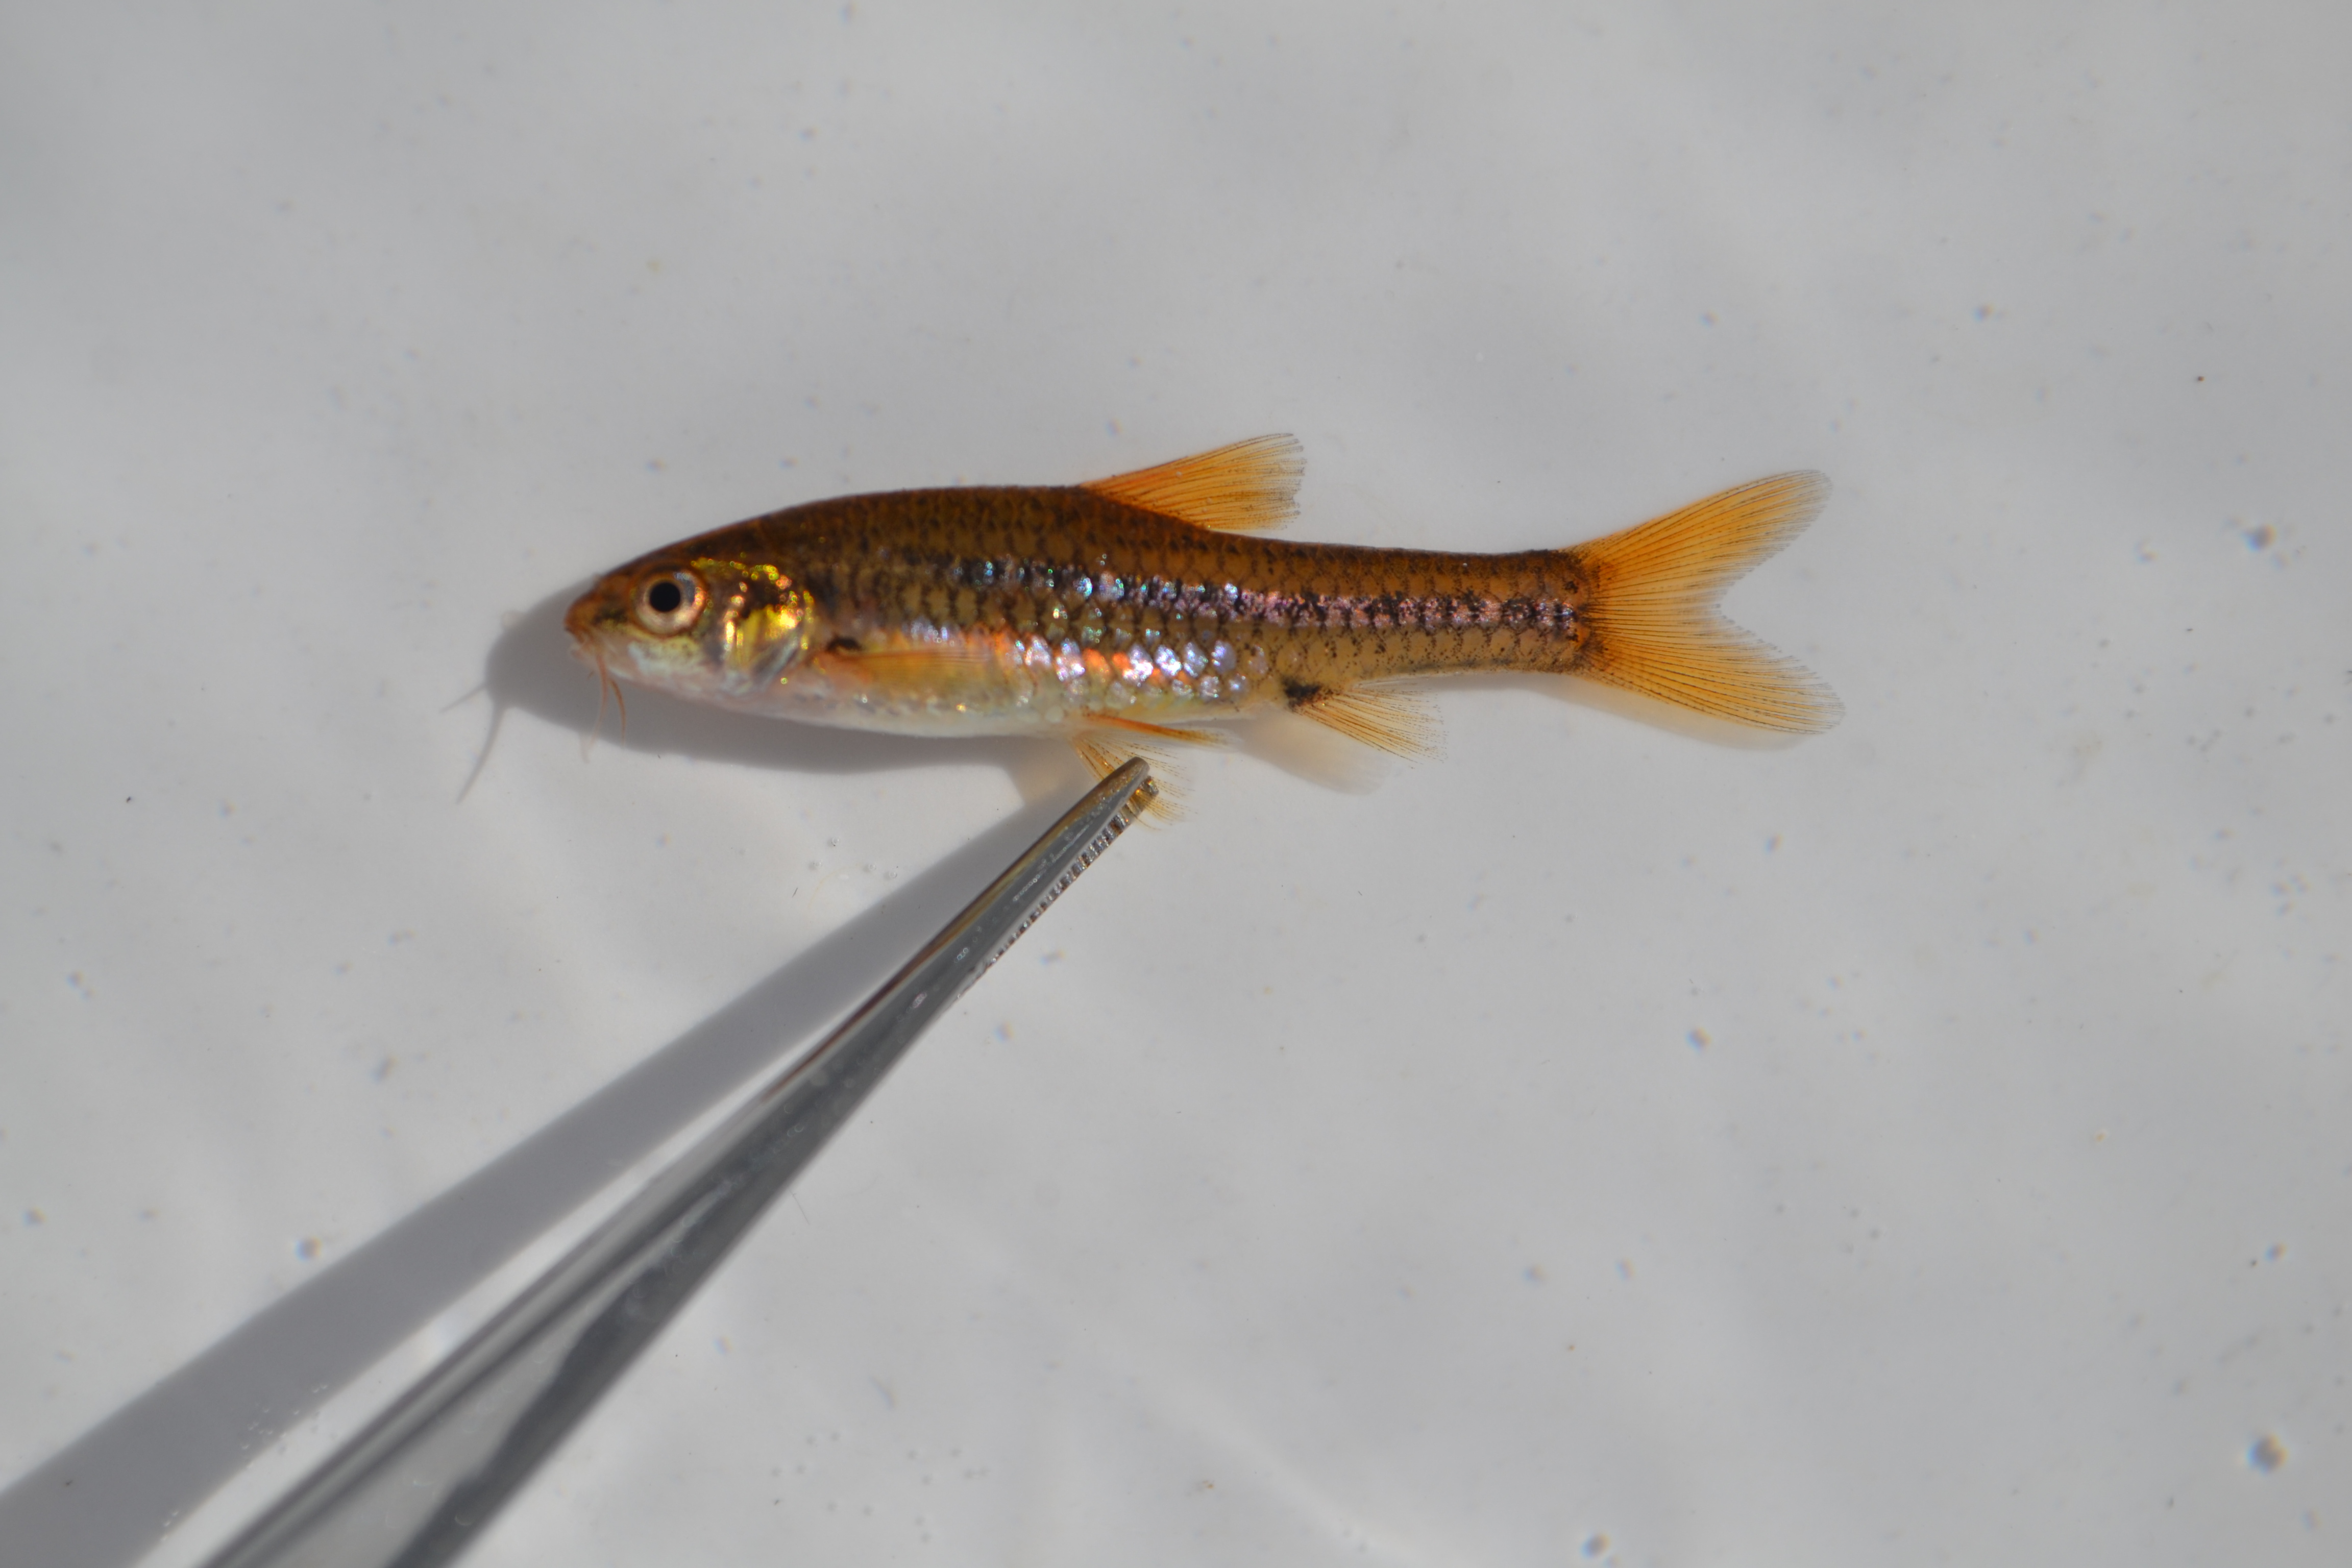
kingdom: Animalia
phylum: Chordata
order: Cypriniformes
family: Cyprinidae
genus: Enteromius
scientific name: Enteromius brevipinnis
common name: Shortfin barb
